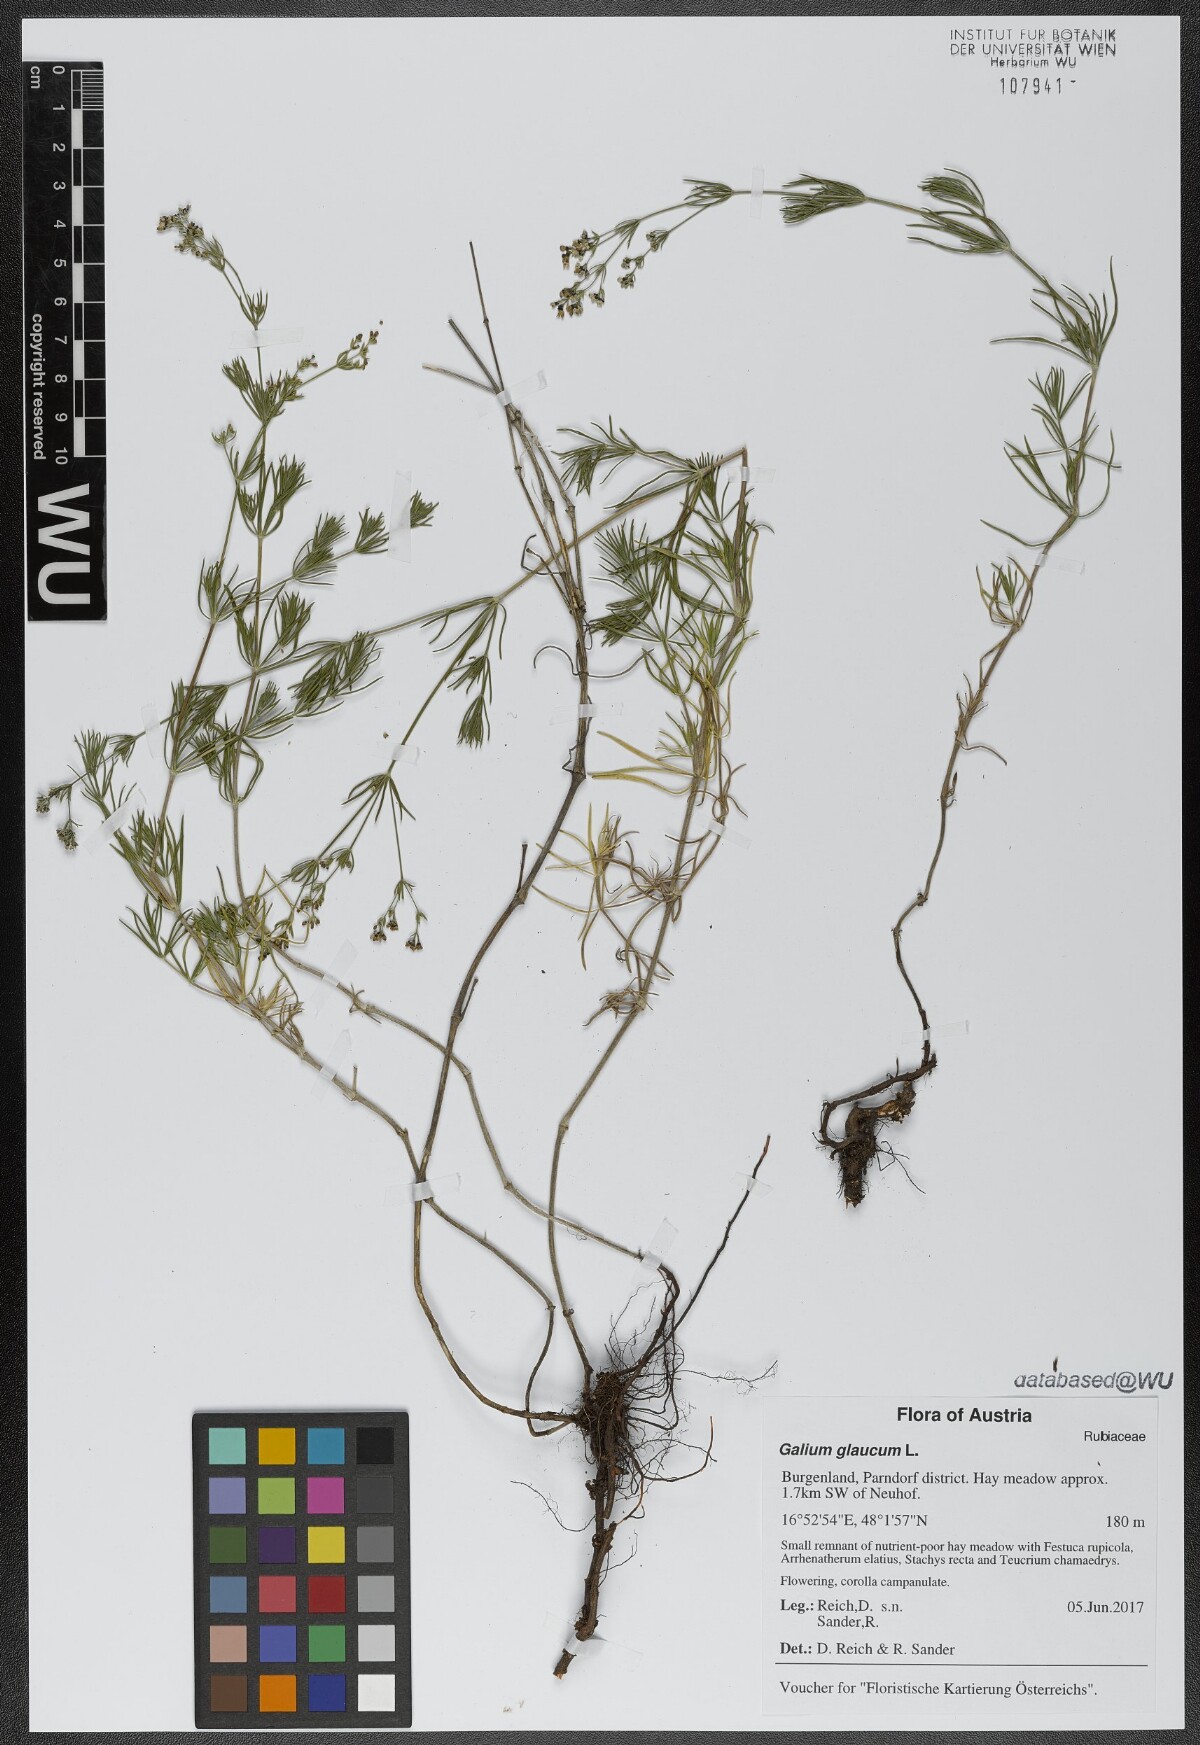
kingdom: Plantae
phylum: Tracheophyta
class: Magnoliopsida
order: Gentianales
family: Rubiaceae
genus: Galium
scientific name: Galium glaucum
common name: Waxy bedstraw
